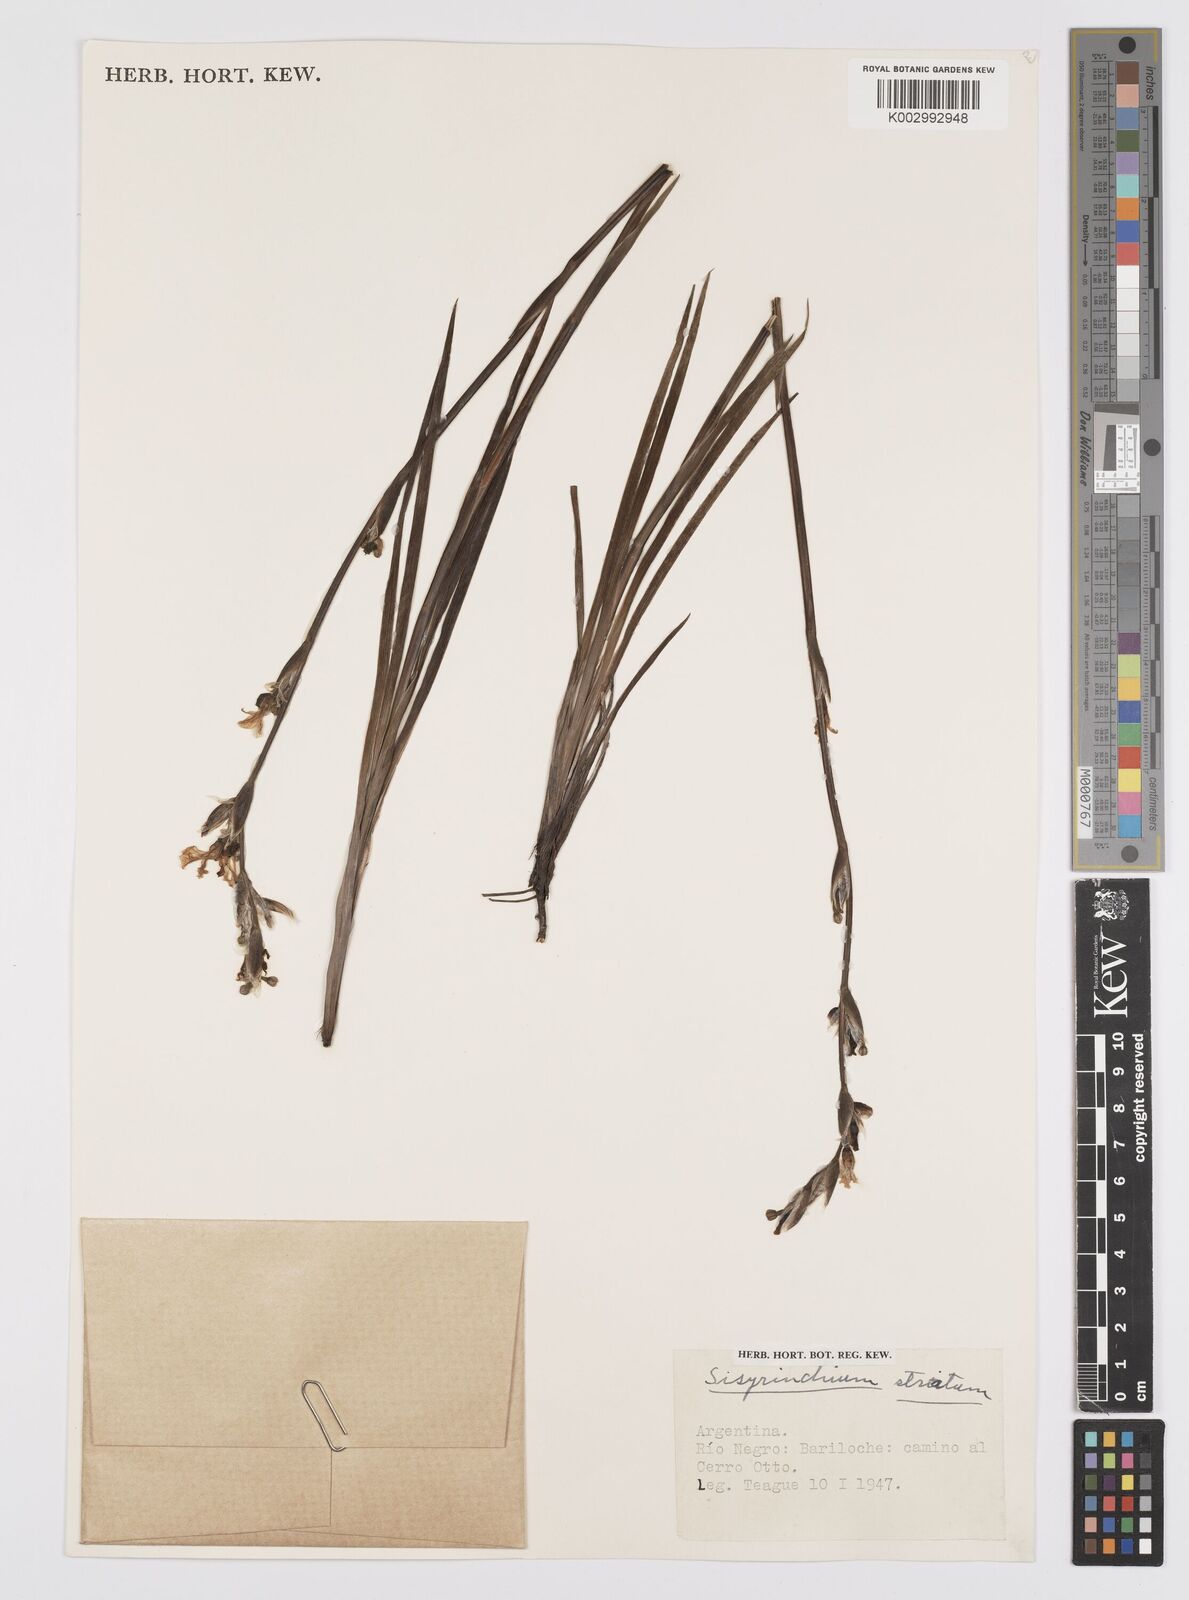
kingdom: Plantae
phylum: Tracheophyta
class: Liliopsida
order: Asparagales
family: Iridaceae
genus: Sisyrinchium
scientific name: Sisyrinchium striatum
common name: Pale yellow-eyed-grass
